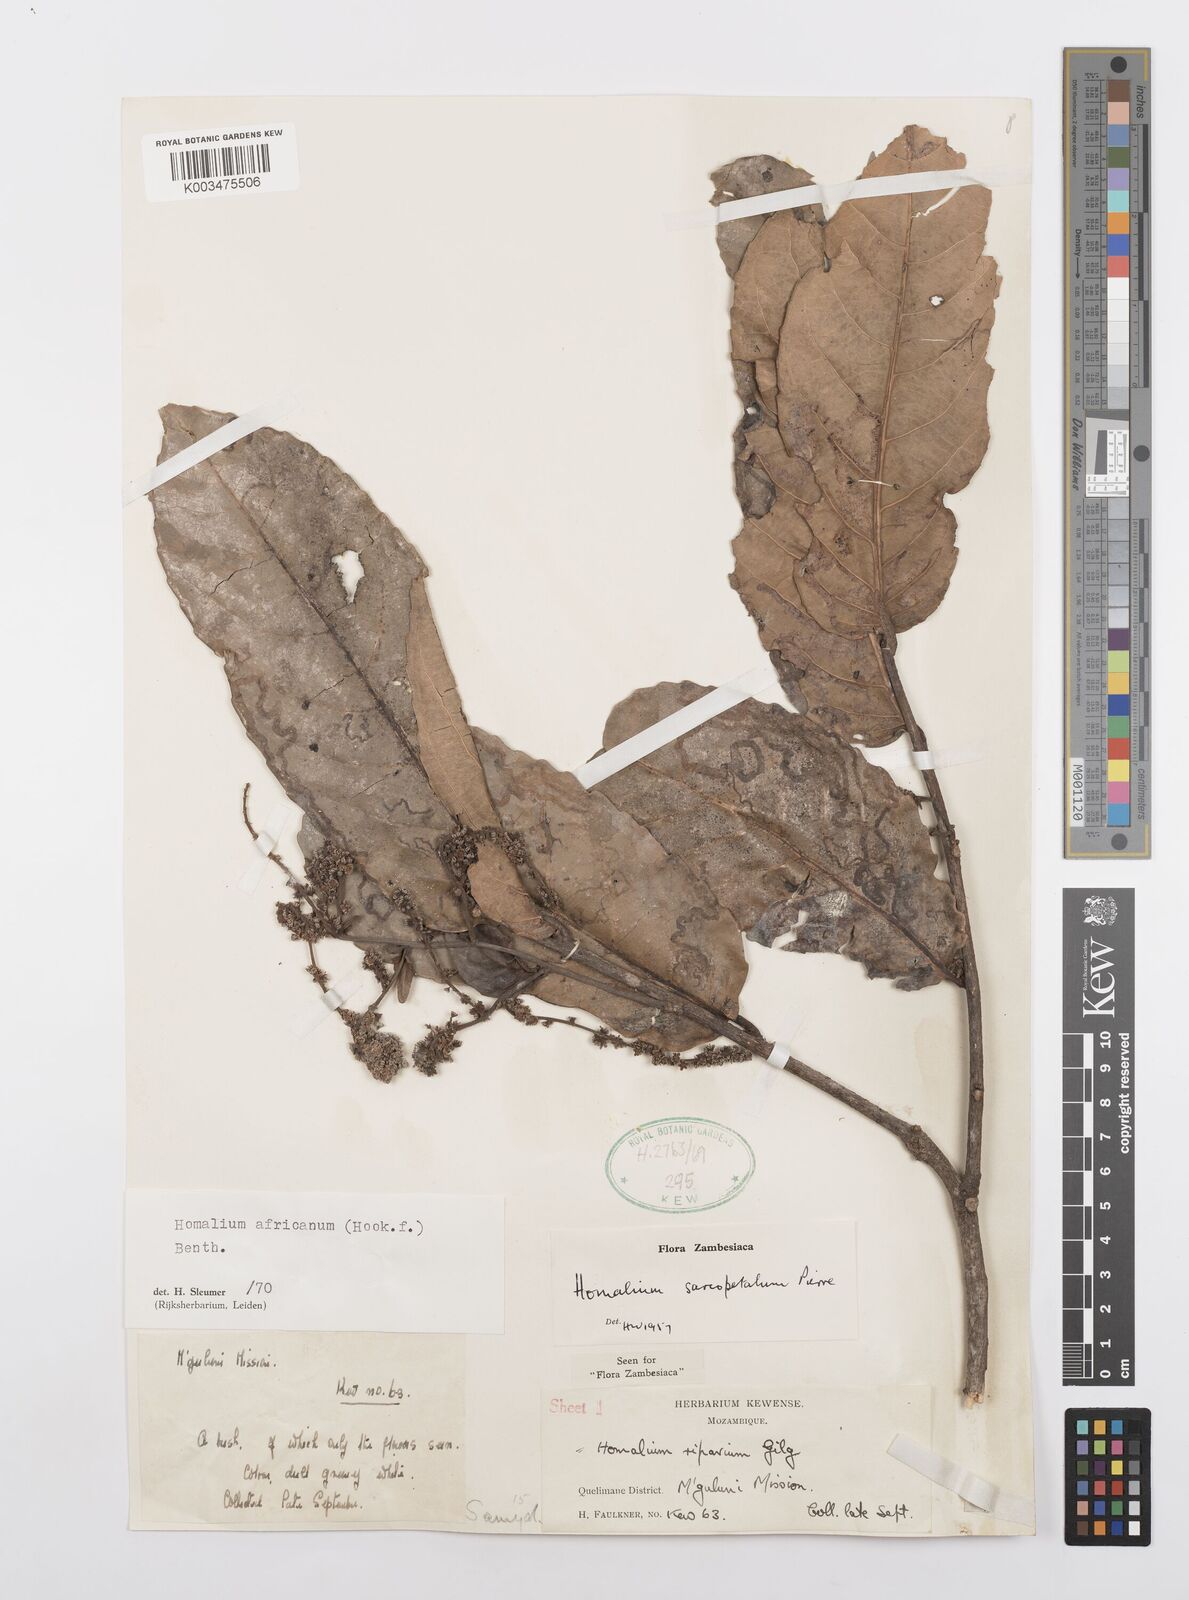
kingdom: Plantae
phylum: Tracheophyta
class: Magnoliopsida
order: Malpighiales
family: Salicaceae
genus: Homalium
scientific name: Homalium africanum
